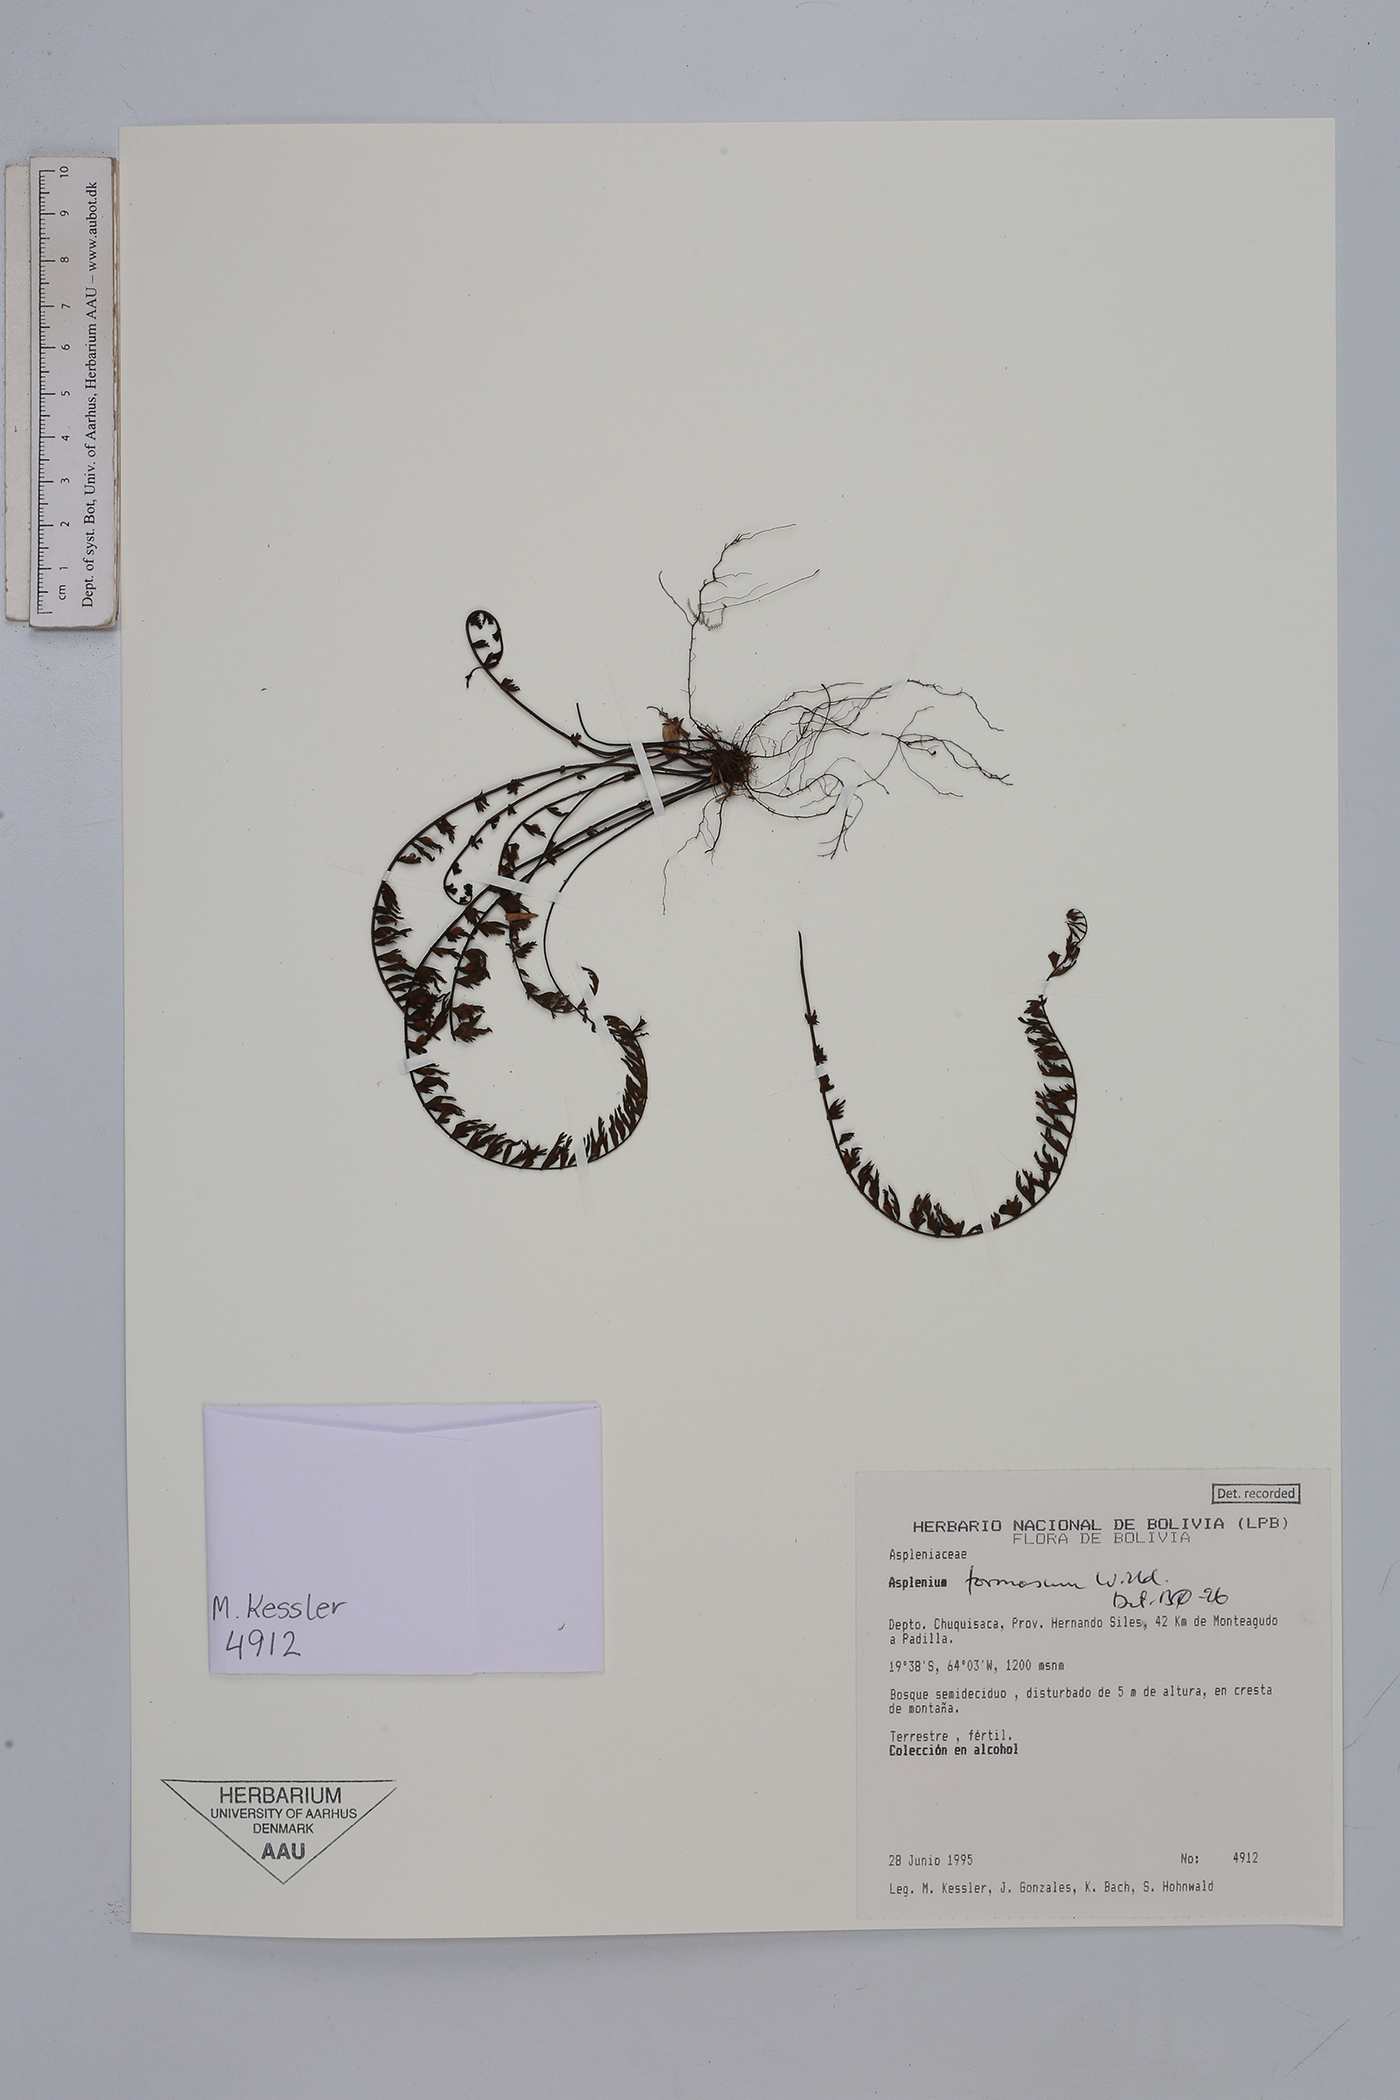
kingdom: Plantae
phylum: Tracheophyta
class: Polypodiopsida
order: Polypodiales
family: Aspleniaceae
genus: Asplenium
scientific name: Asplenium formosum
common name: Showy spleenwort
